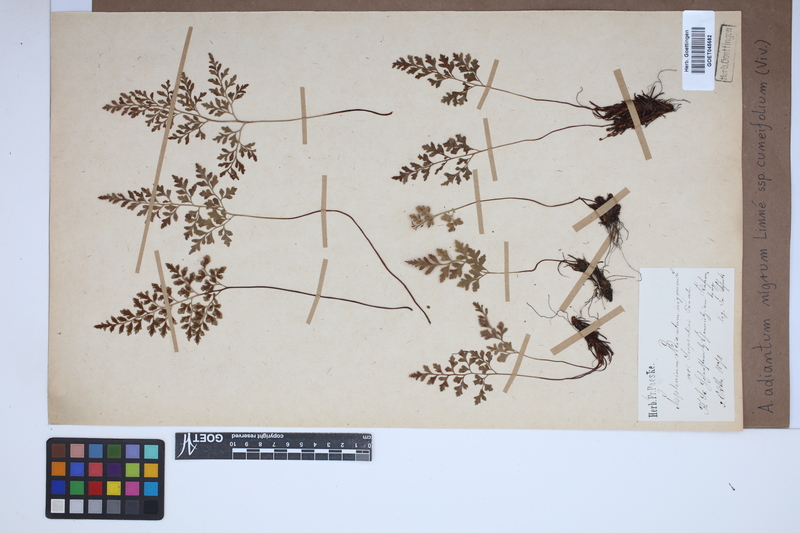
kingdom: Plantae
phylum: Tracheophyta
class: Polypodiopsida
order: Polypodiales
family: Aspleniaceae
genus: Asplenium
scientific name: Asplenium cuneifolium
